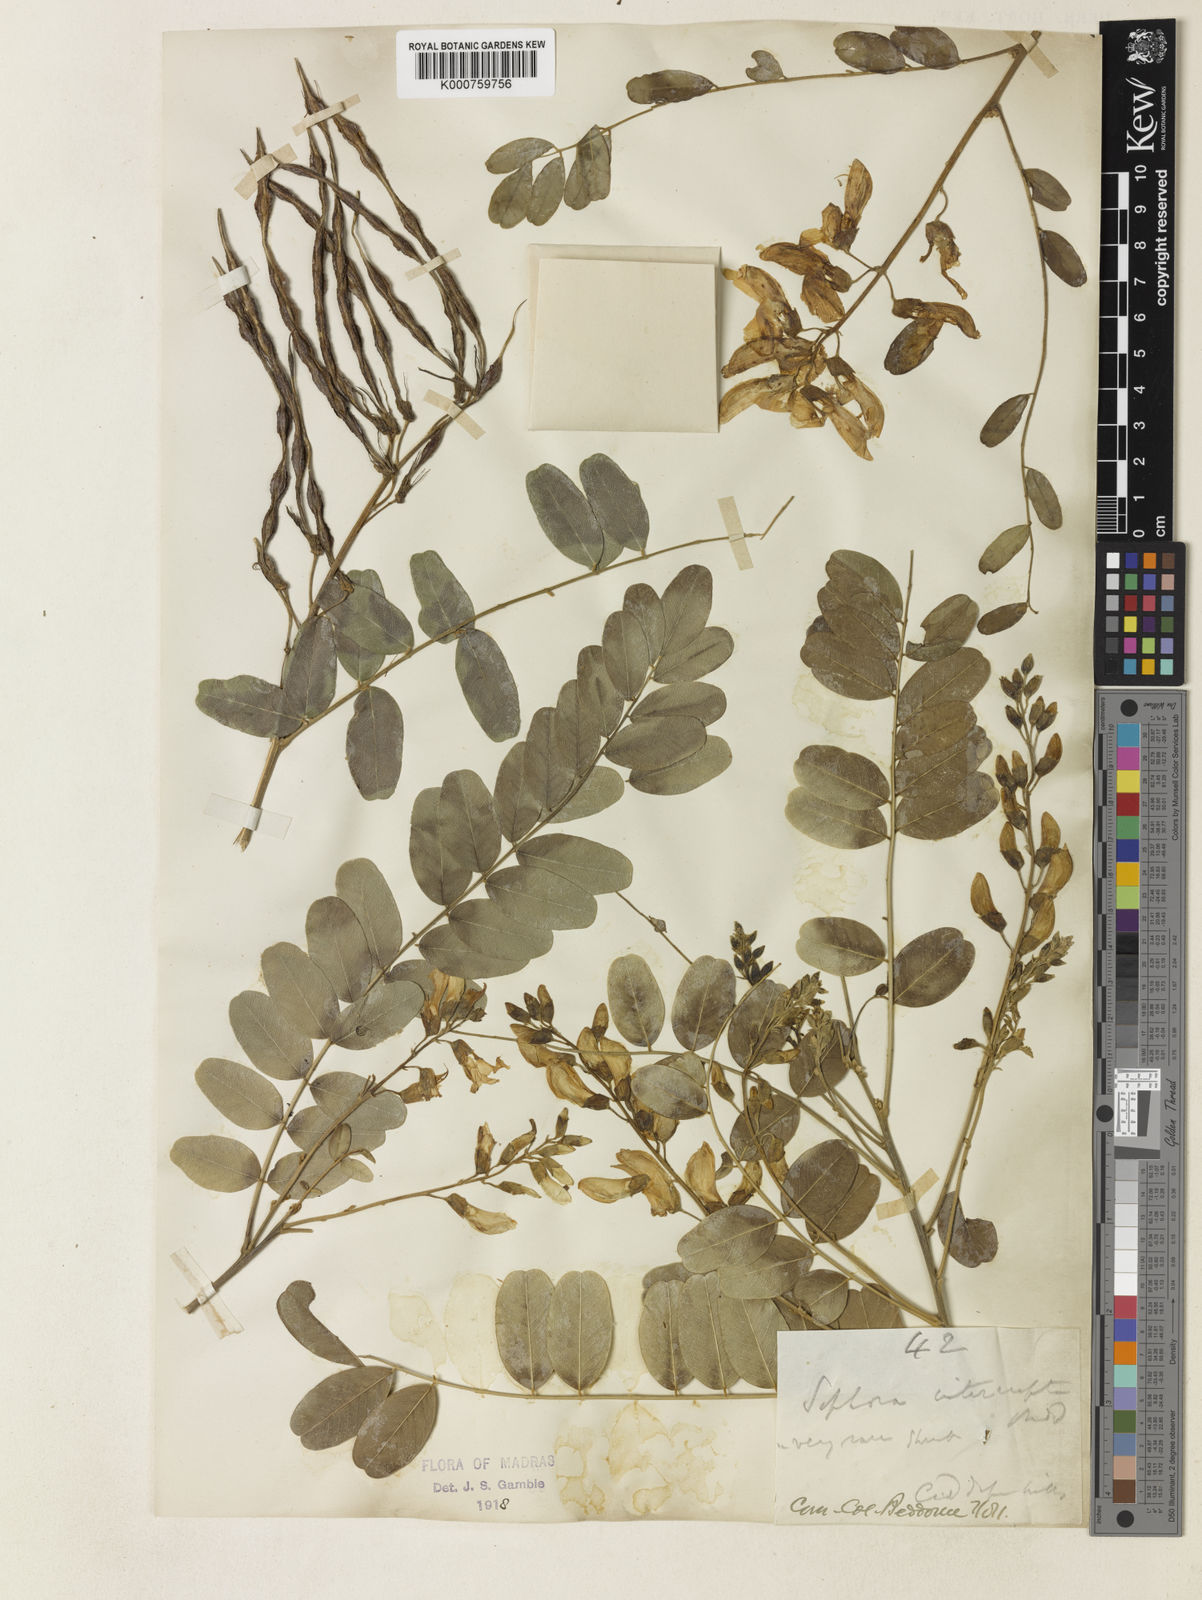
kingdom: Plantae
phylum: Tracheophyta
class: Magnoliopsida
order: Fabales
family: Fabaceae
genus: Sophora
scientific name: Sophora
